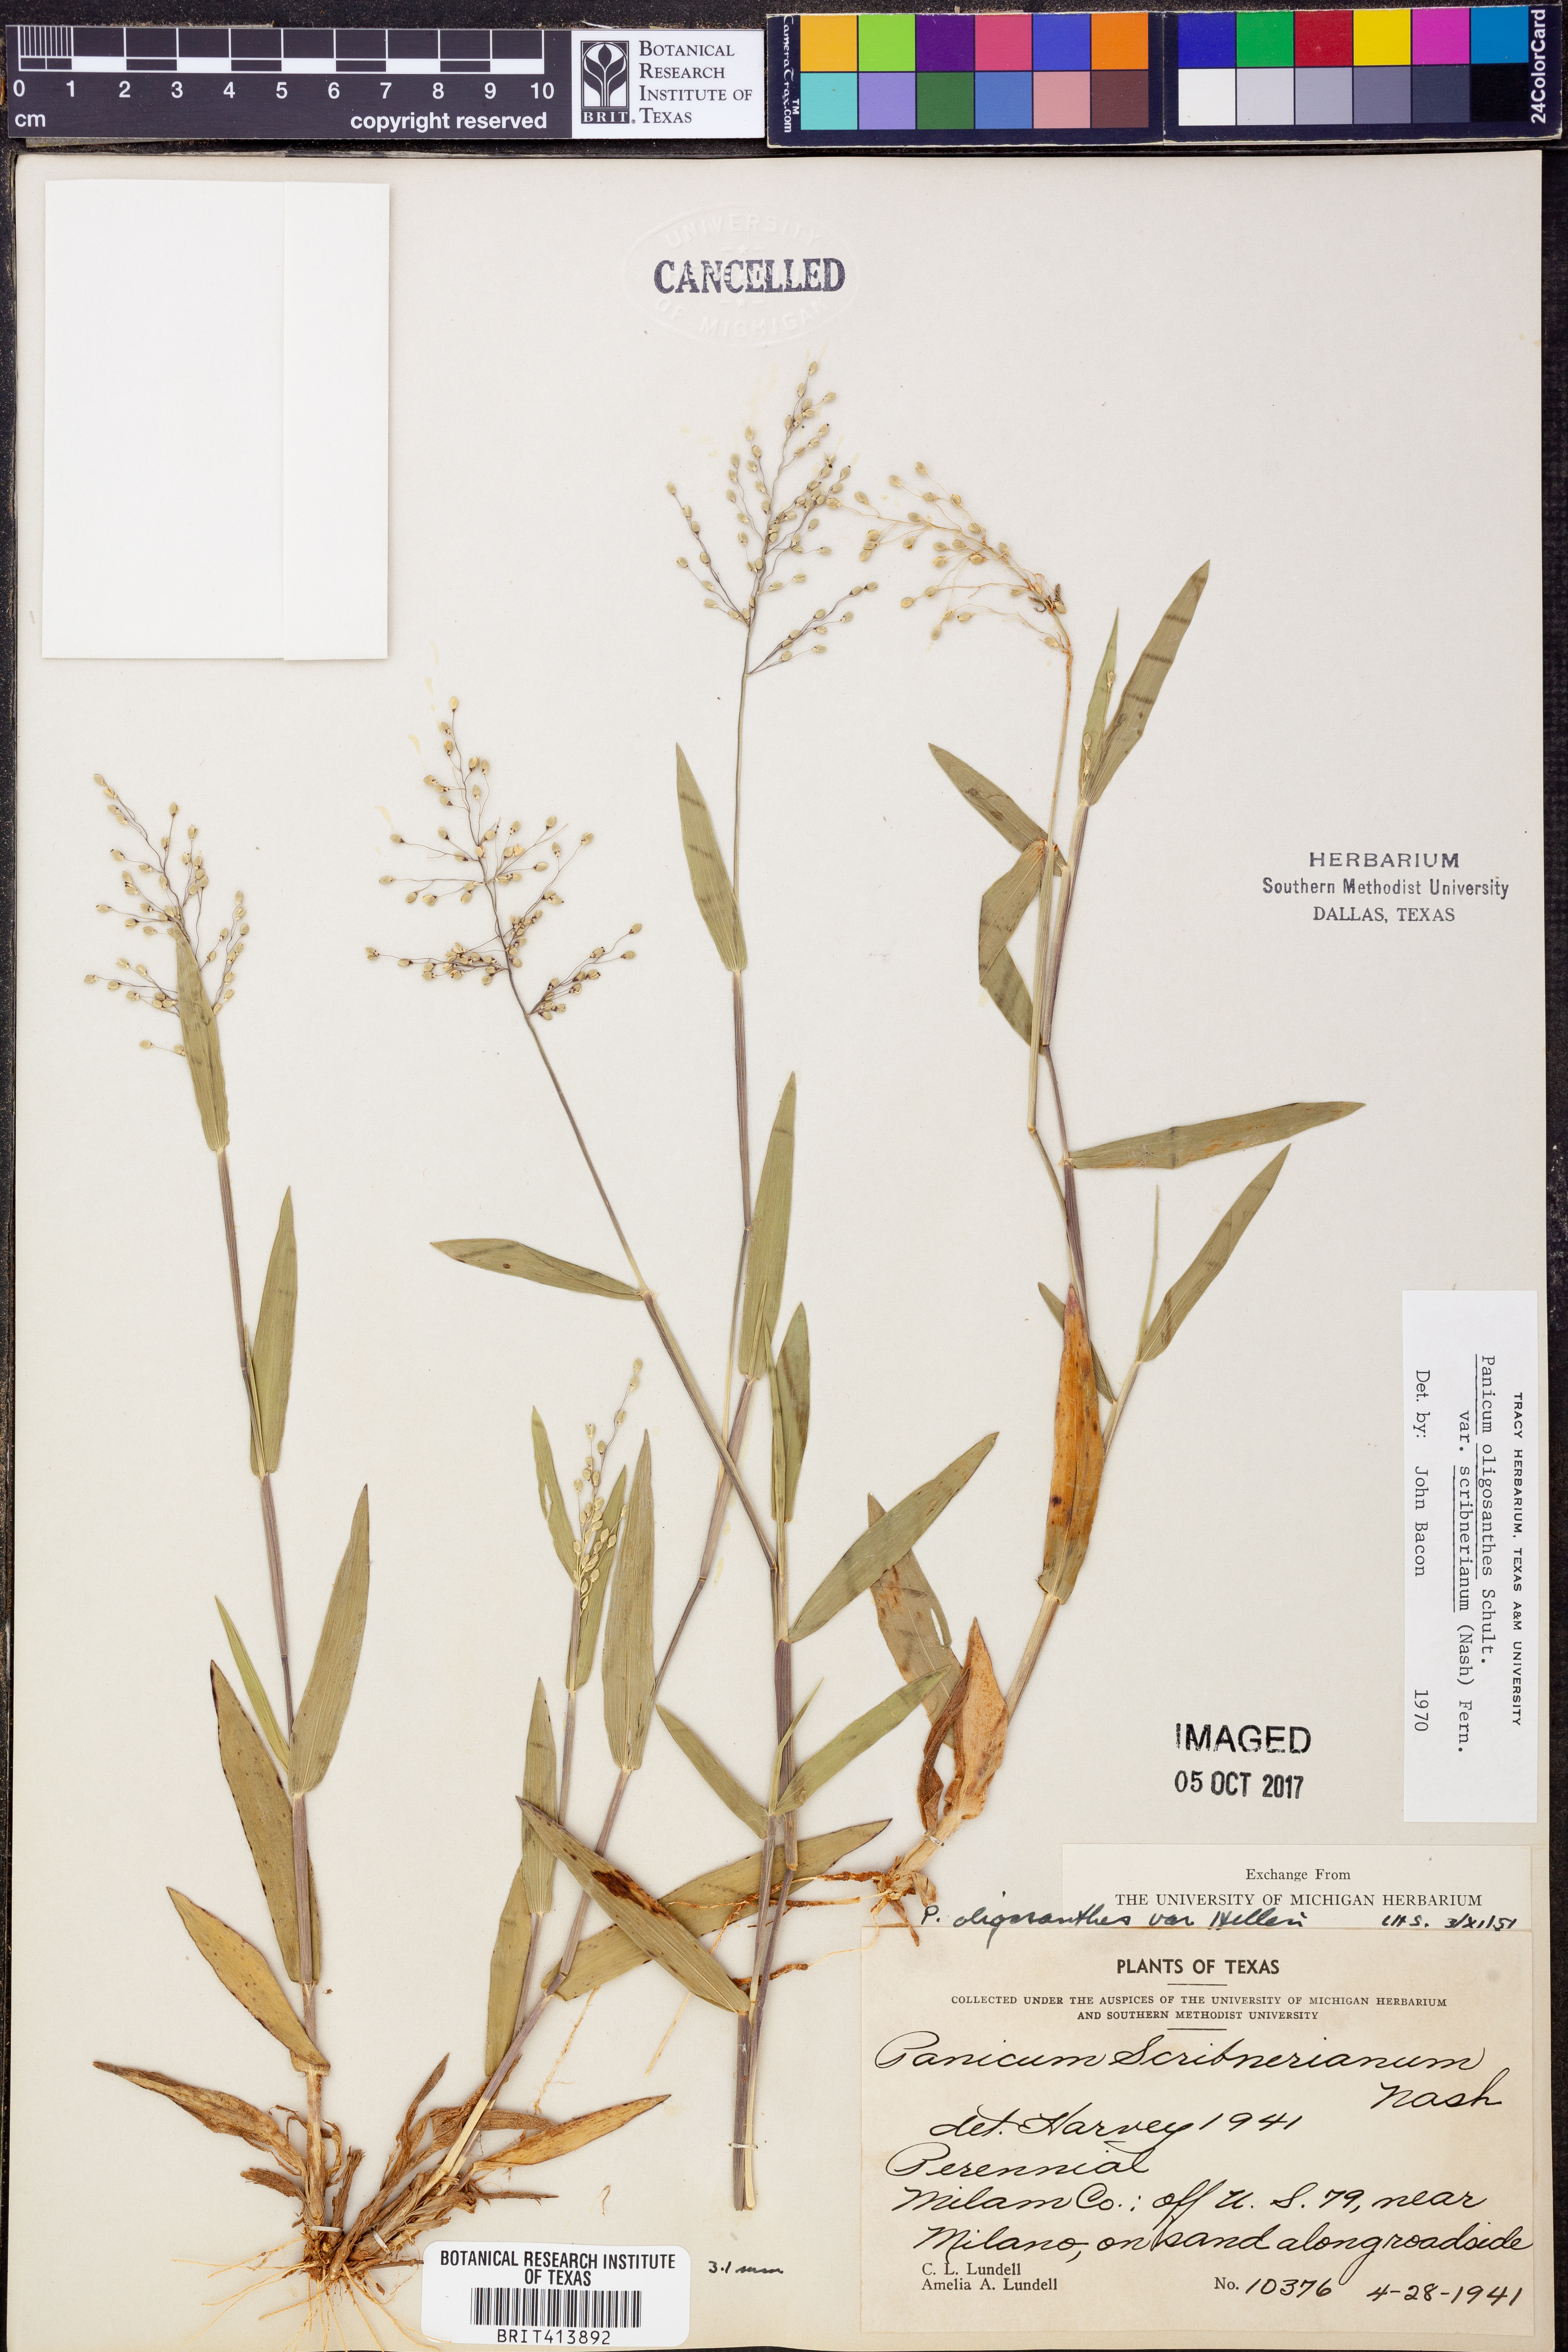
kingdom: Plantae
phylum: Tracheophyta
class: Liliopsida
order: Poales
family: Poaceae
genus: Dichanthelium
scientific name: Dichanthelium scribnerianum
